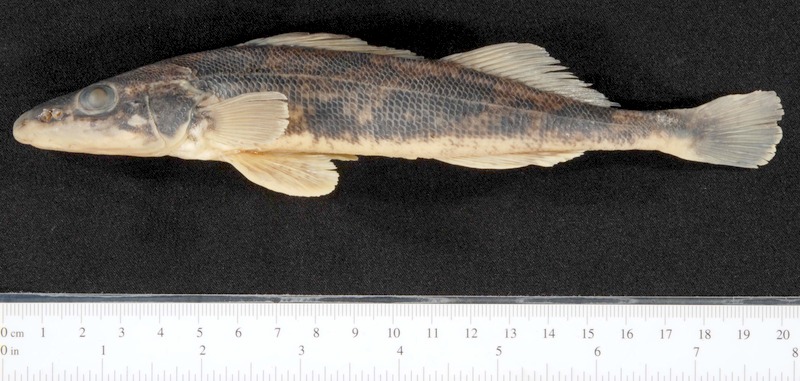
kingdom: Animalia
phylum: Chordata
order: Perciformes
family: Percidae
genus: Zingel
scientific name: Zingel zingel
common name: Zingel
